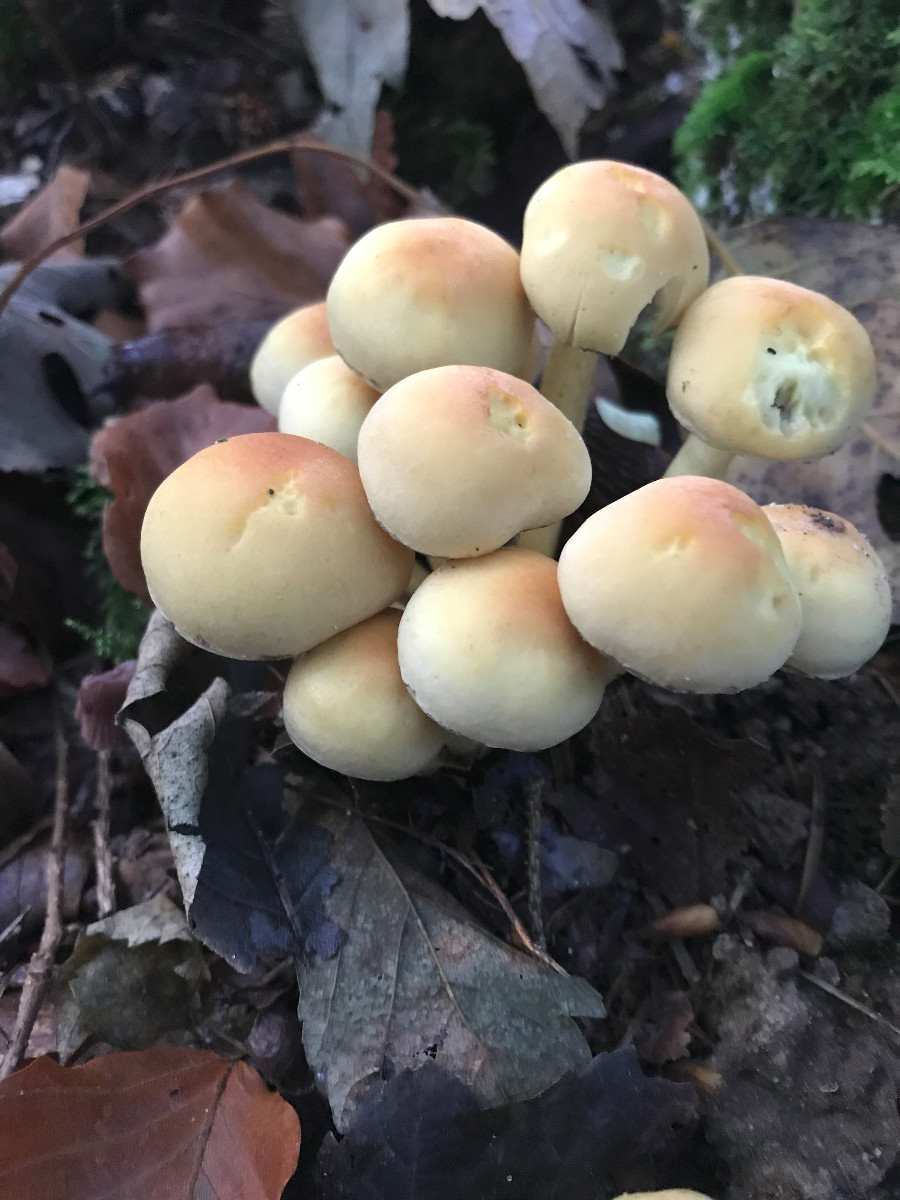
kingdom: Fungi
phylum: Basidiomycota
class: Agaricomycetes
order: Agaricales
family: Strophariaceae
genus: Hypholoma
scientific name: Hypholoma fasciculare
